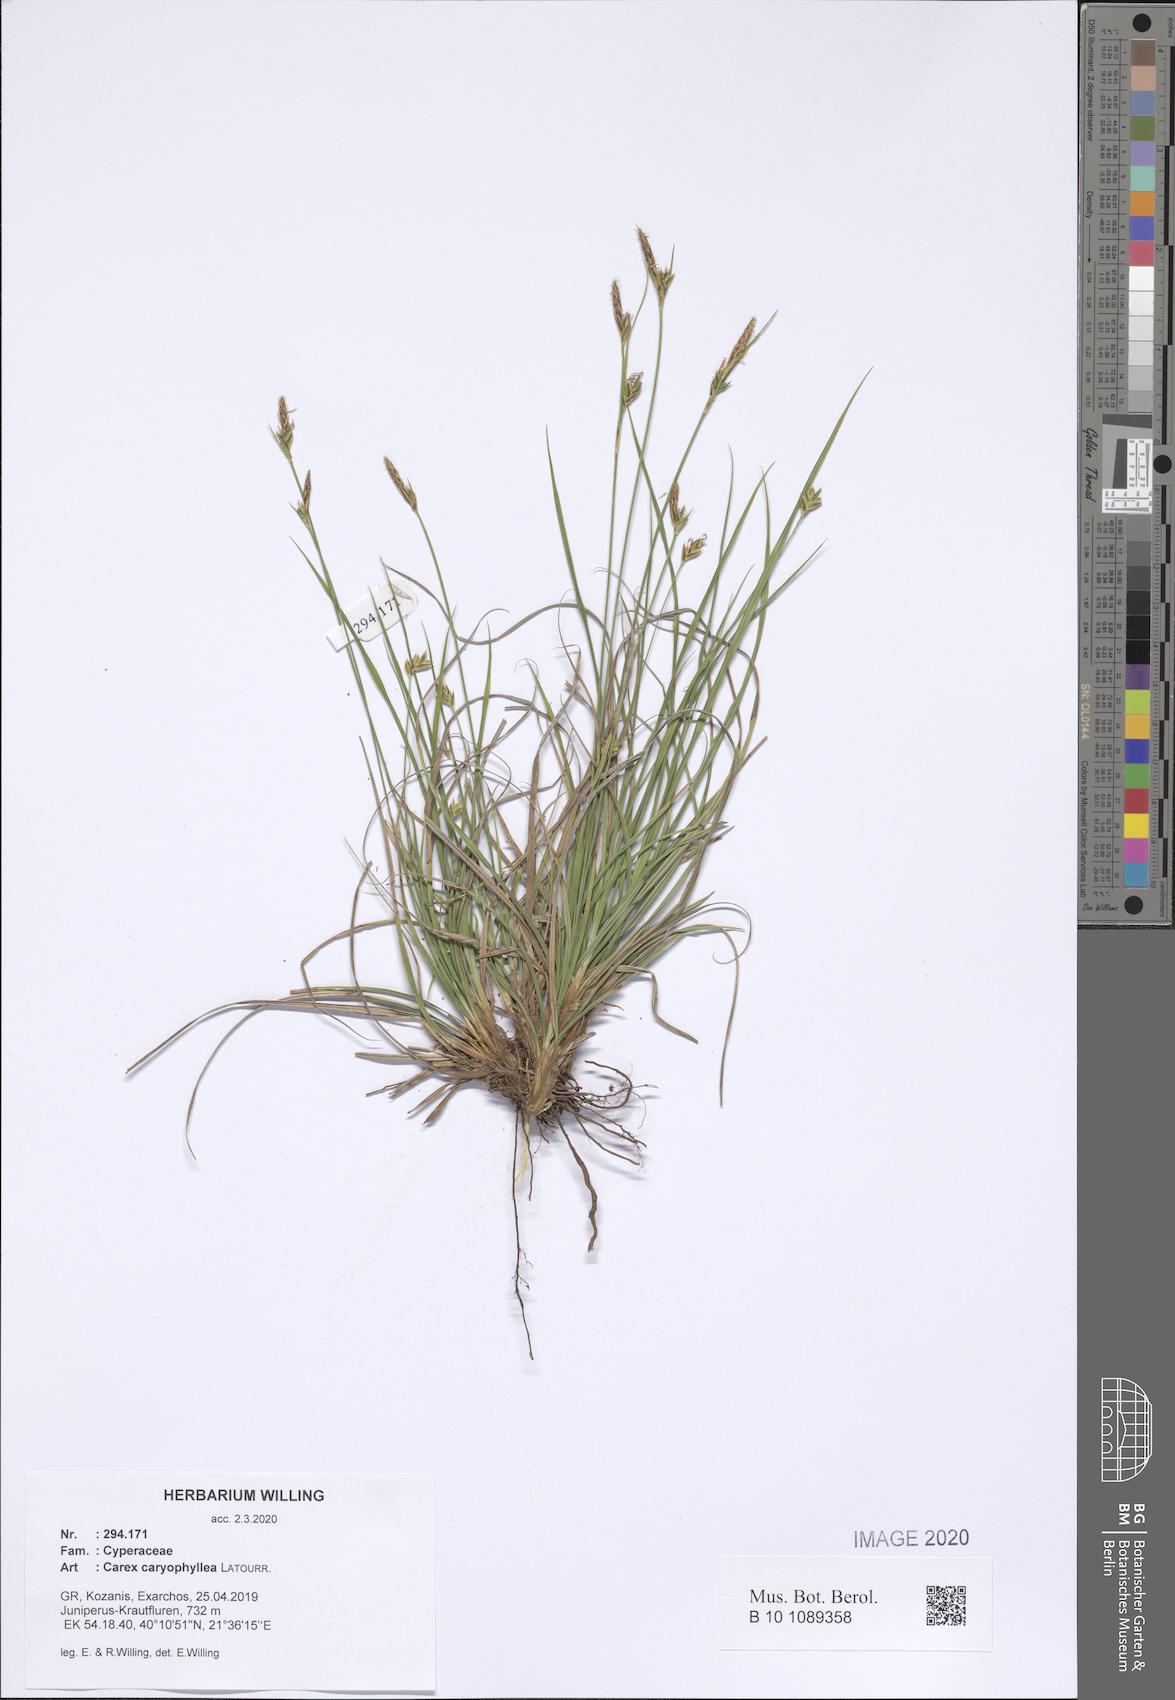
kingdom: Plantae
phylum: Tracheophyta
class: Liliopsida
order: Poales
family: Cyperaceae
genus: Carex
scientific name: Carex halleriana
